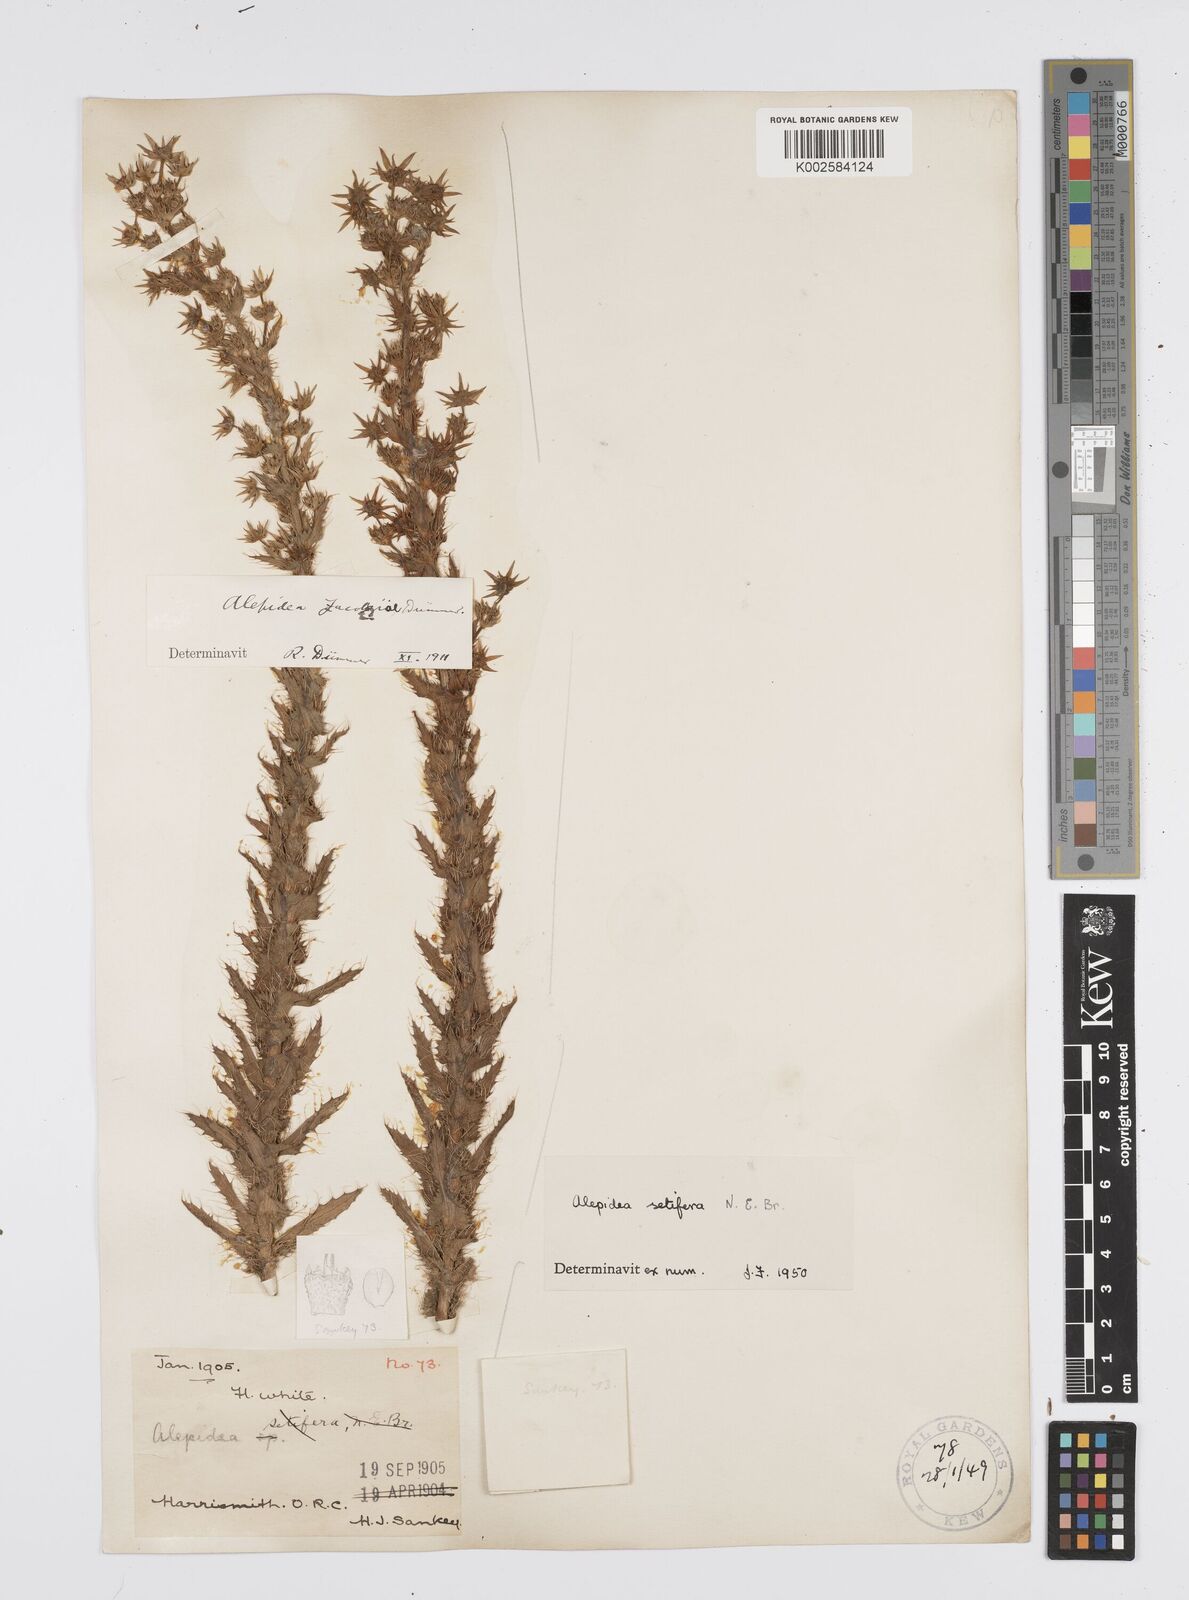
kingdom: Plantae
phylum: Tracheophyta
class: Magnoliopsida
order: Apiales
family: Apiaceae
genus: Alepidea
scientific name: Alepidea setifera
